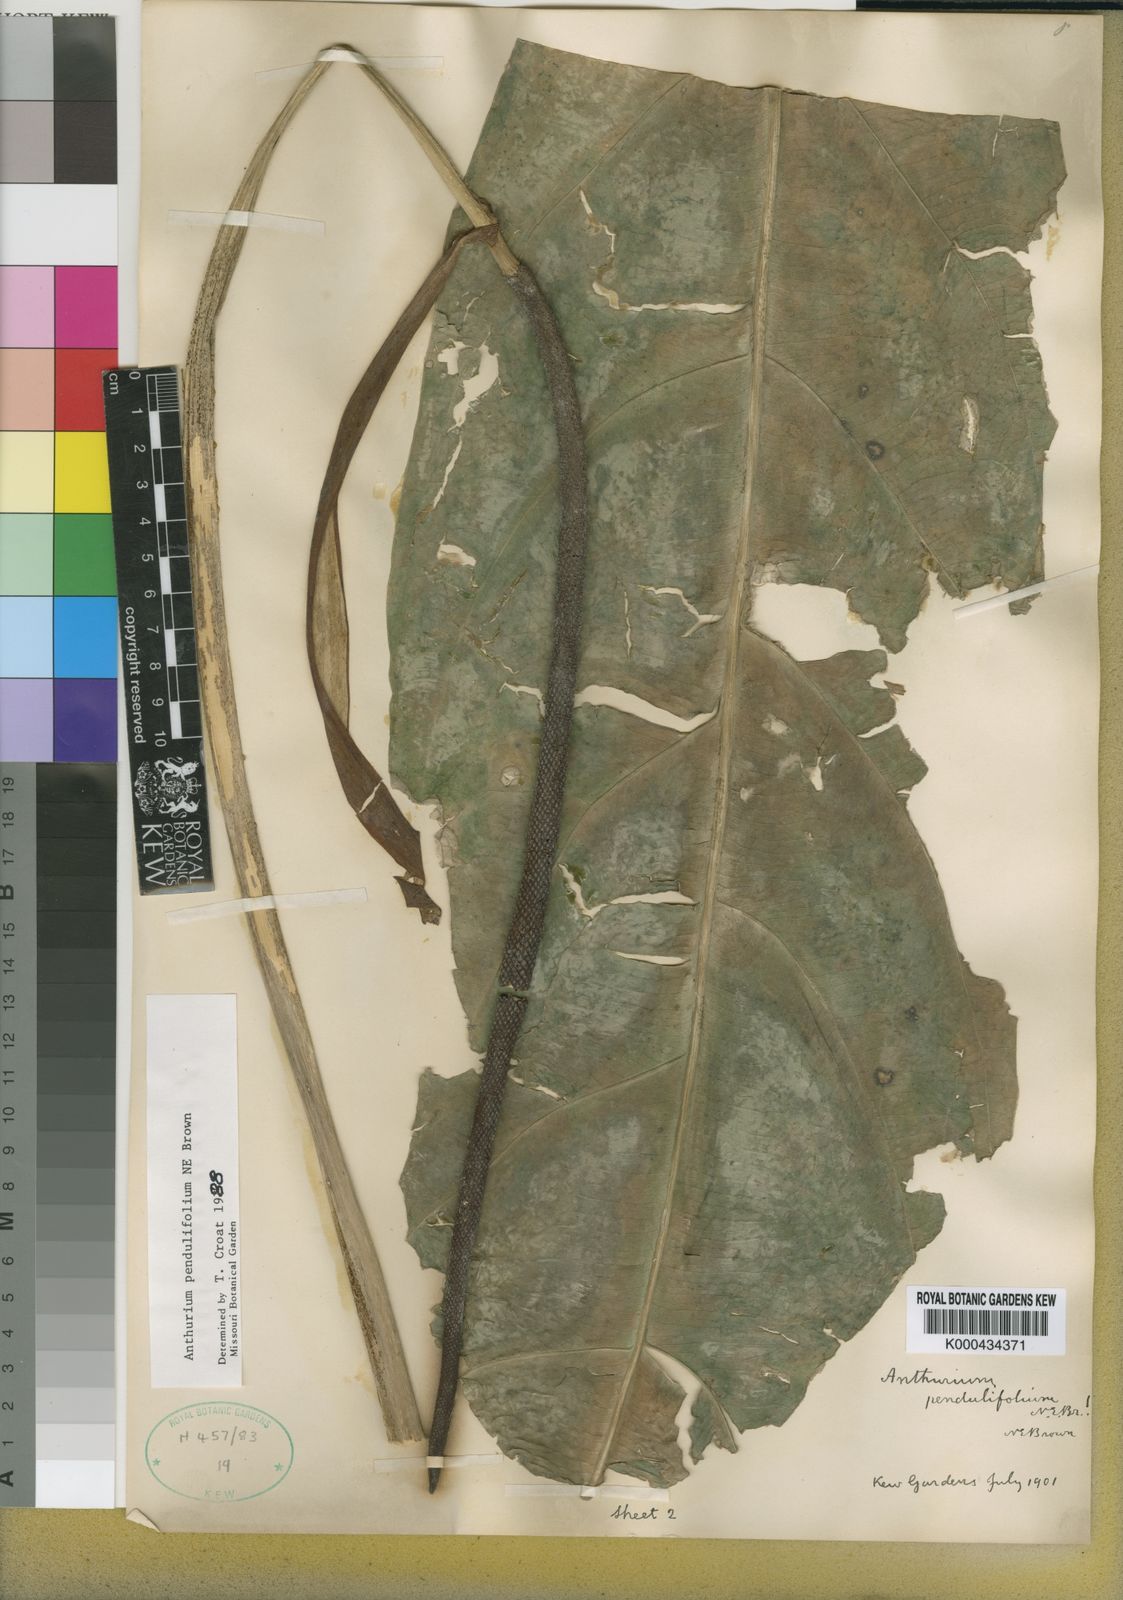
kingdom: Plantae
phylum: Tracheophyta
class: Liliopsida
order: Alismatales
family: Araceae
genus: Anthurium
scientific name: Anthurium pendulifolium
